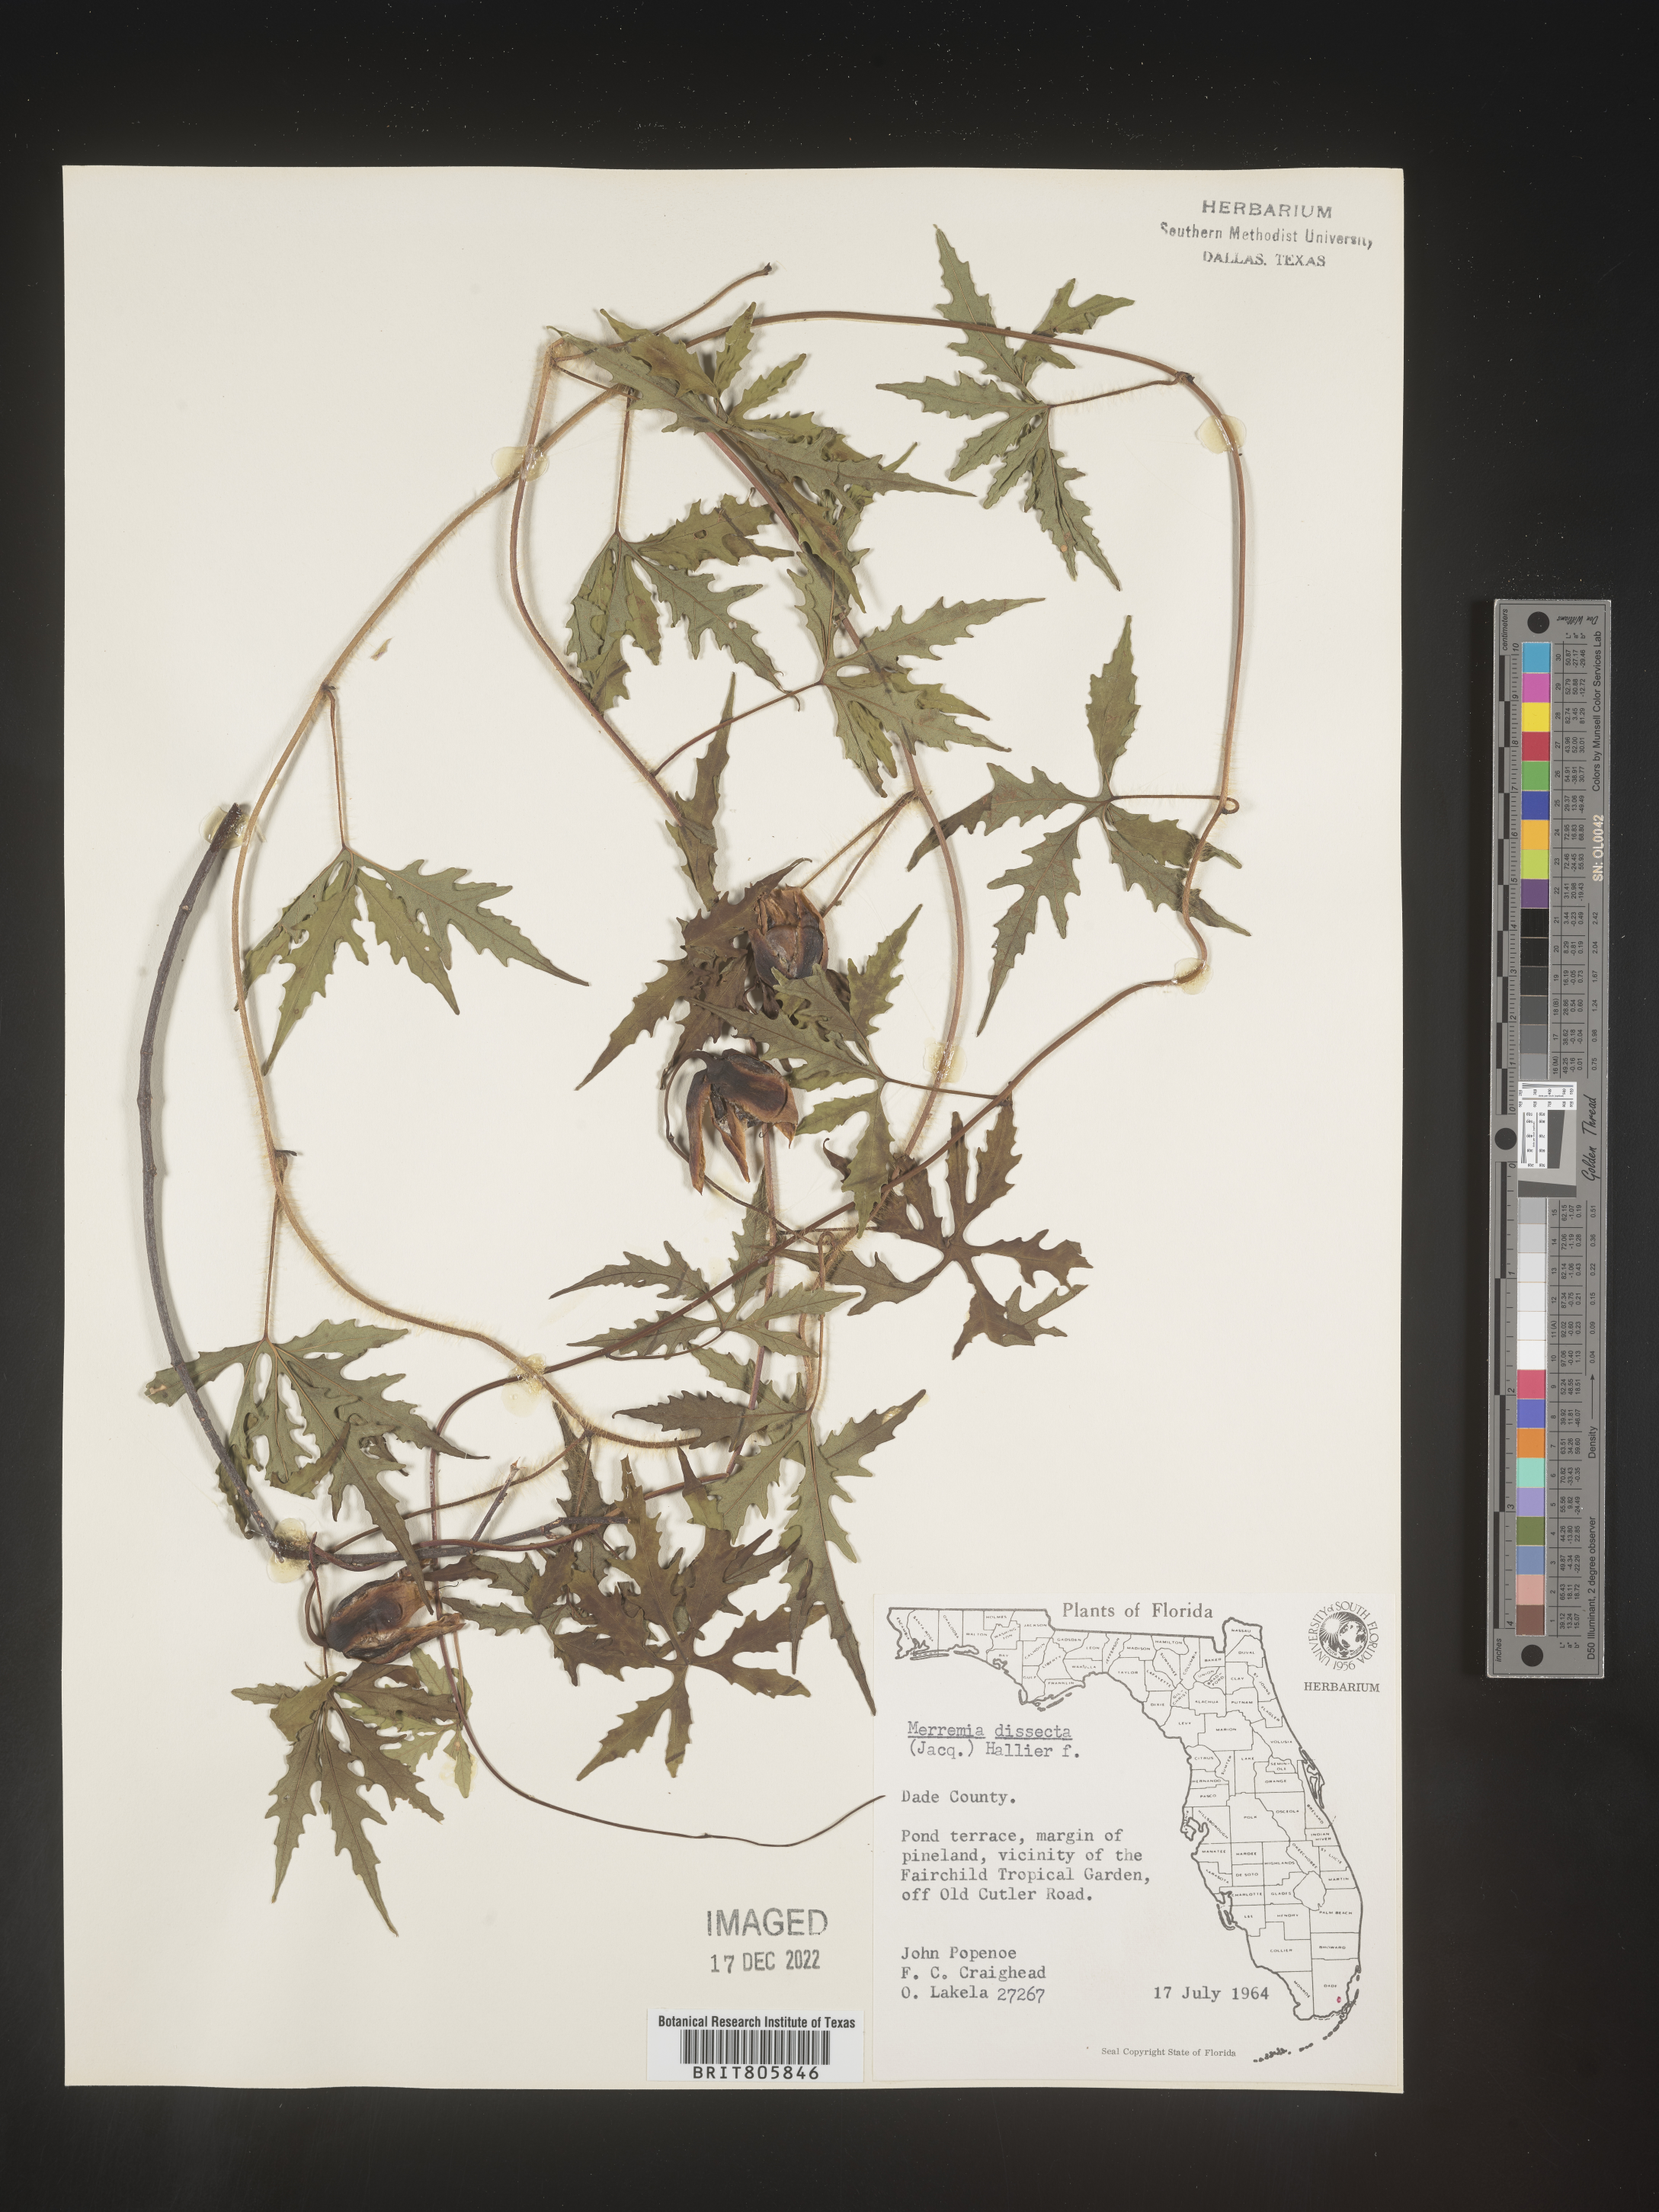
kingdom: Plantae
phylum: Tracheophyta
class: Magnoliopsida
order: Solanales
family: Convolvulaceae
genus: Merremia
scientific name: Merremia
